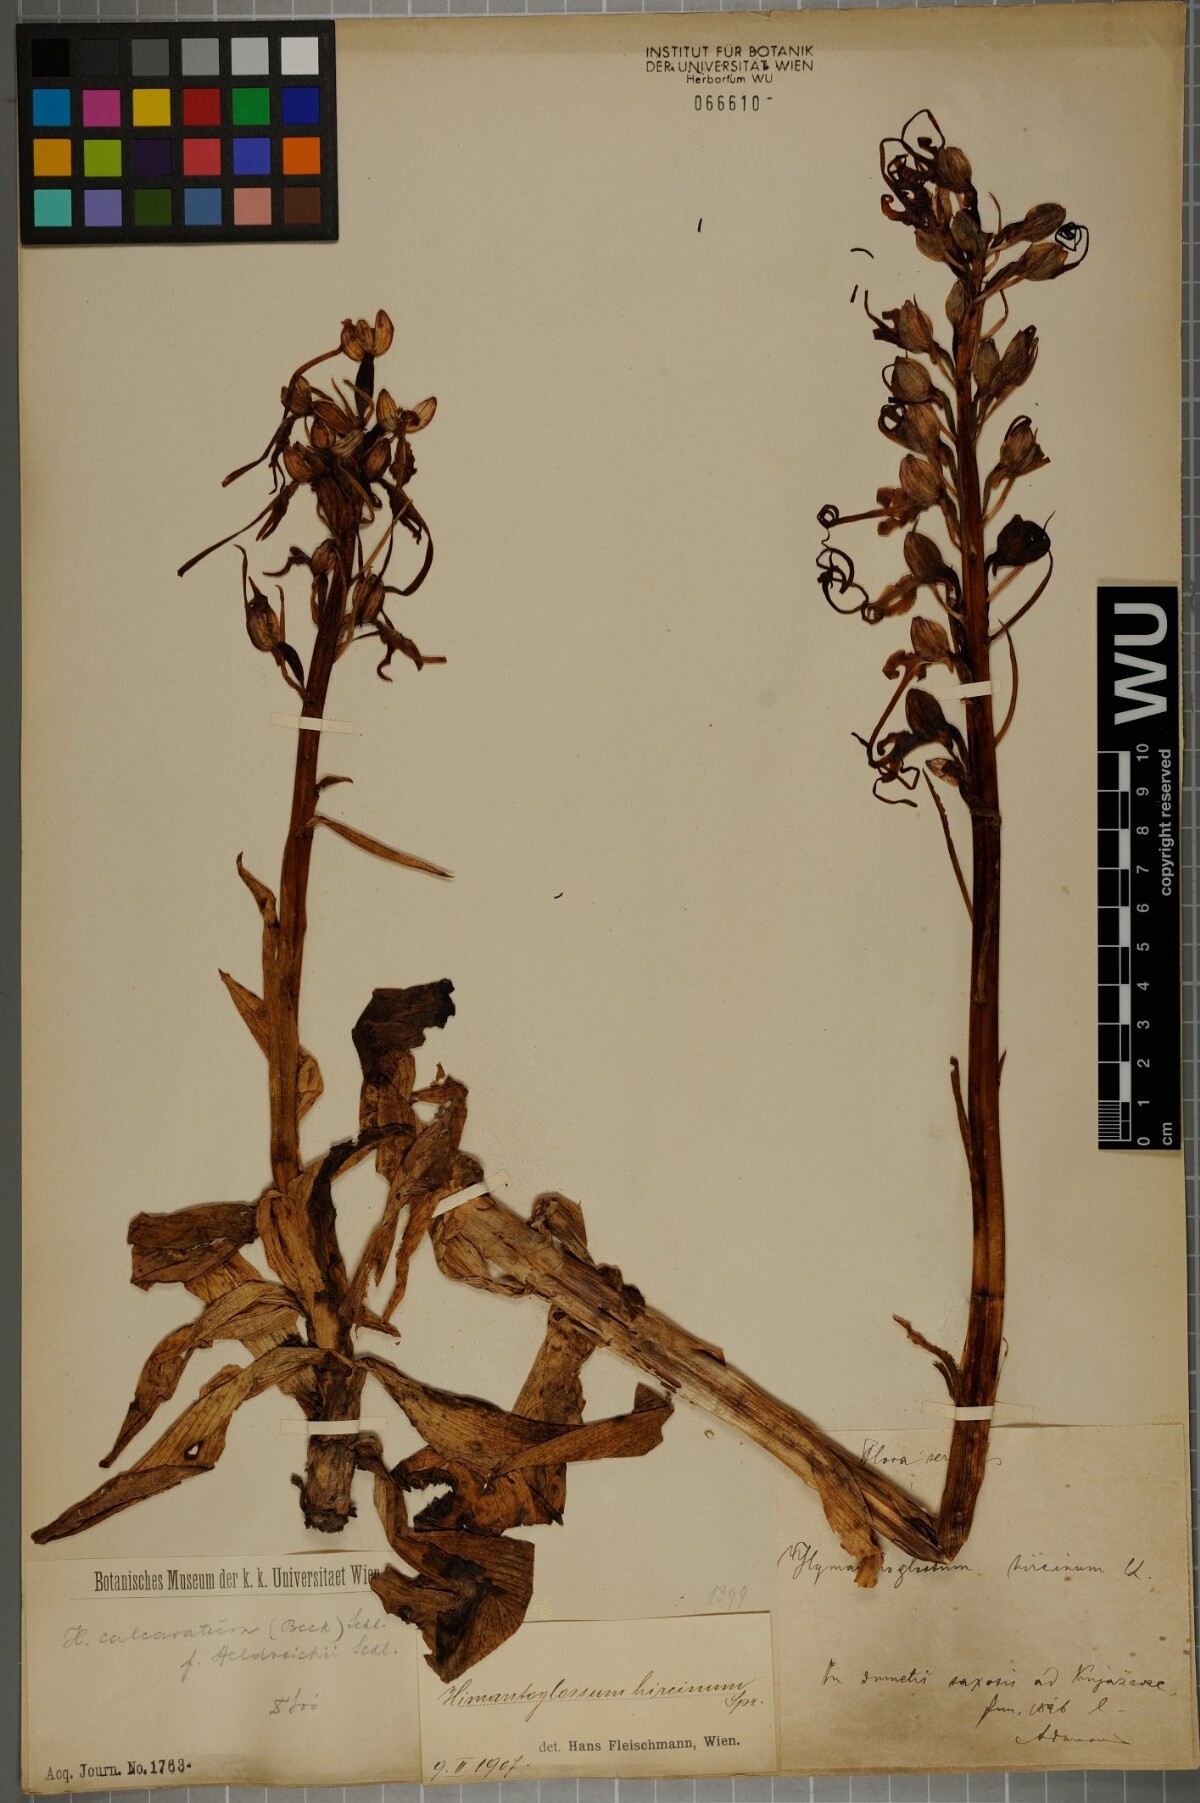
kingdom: Plantae
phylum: Tracheophyta
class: Liliopsida
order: Asparagales
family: Orchidaceae
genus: Himantoglossum
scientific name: Himantoglossum calcaratum
